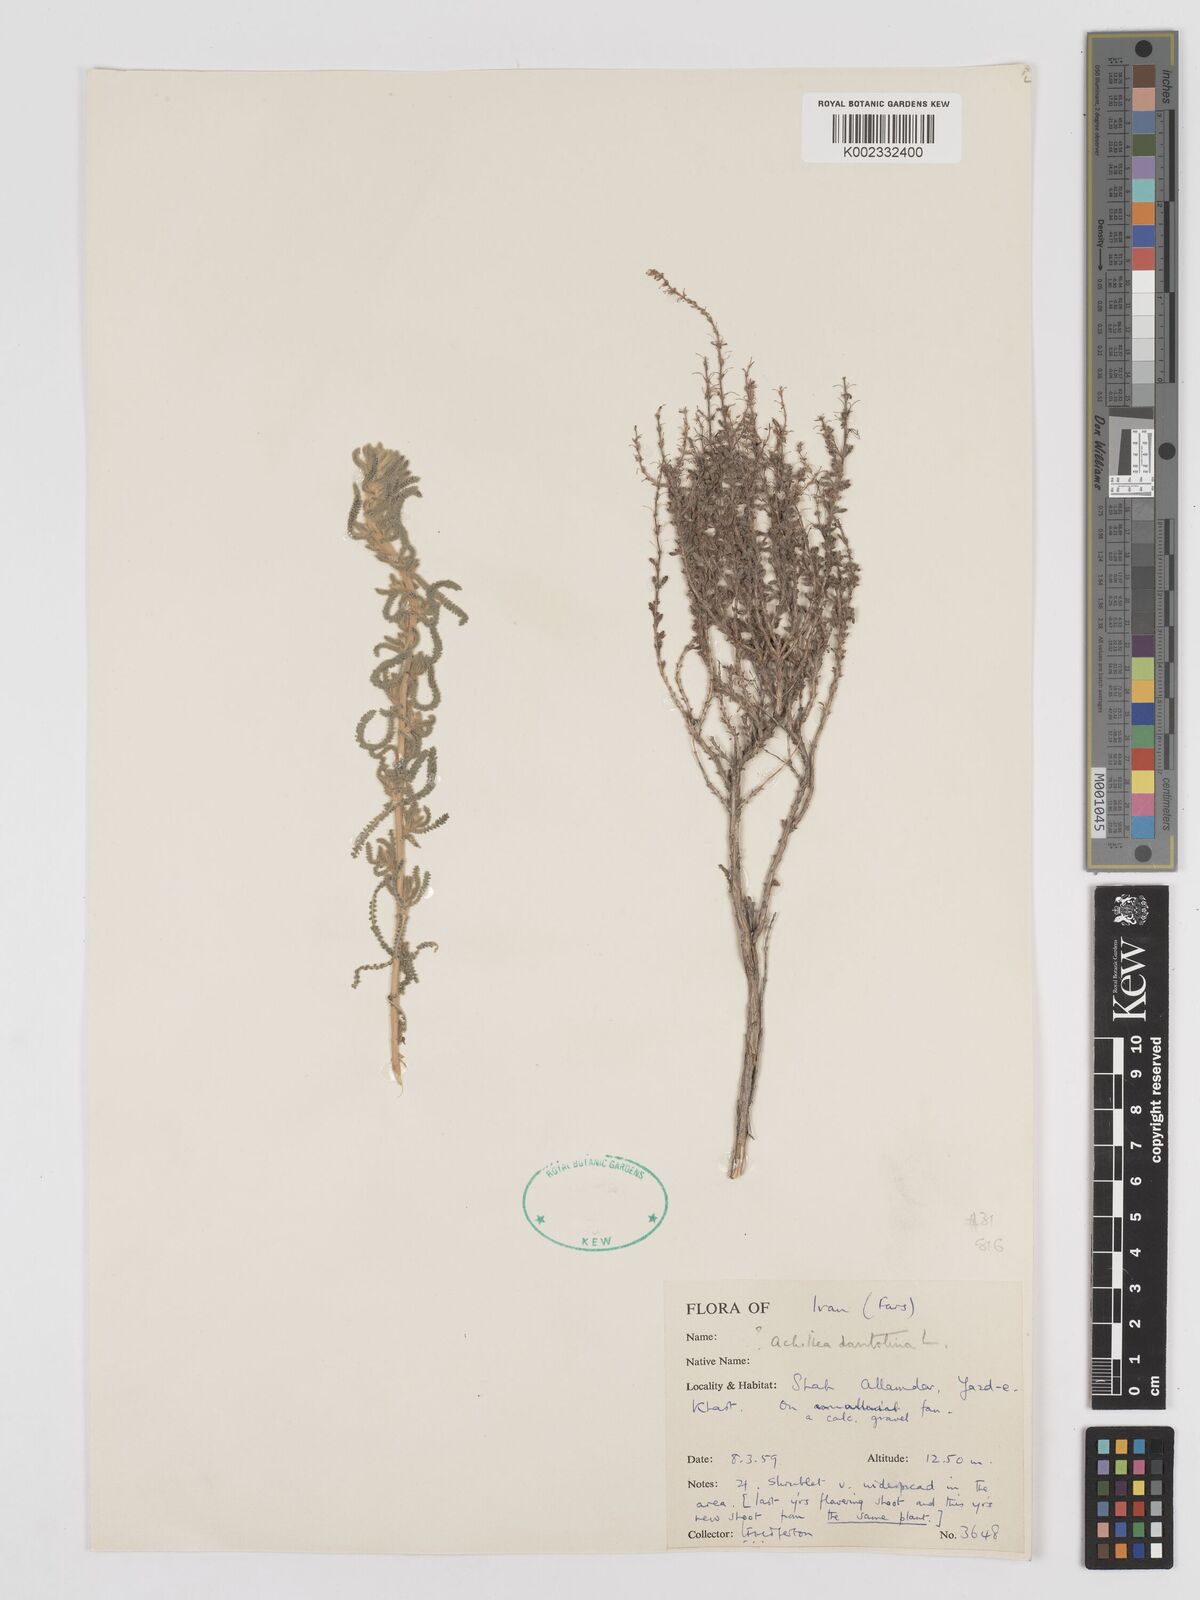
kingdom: Plantae
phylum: Tracheophyta
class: Magnoliopsida
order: Asterales
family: Asteraceae
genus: Achillea
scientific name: Achillea cretica
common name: Chamomile-leaved lavender-cotton
